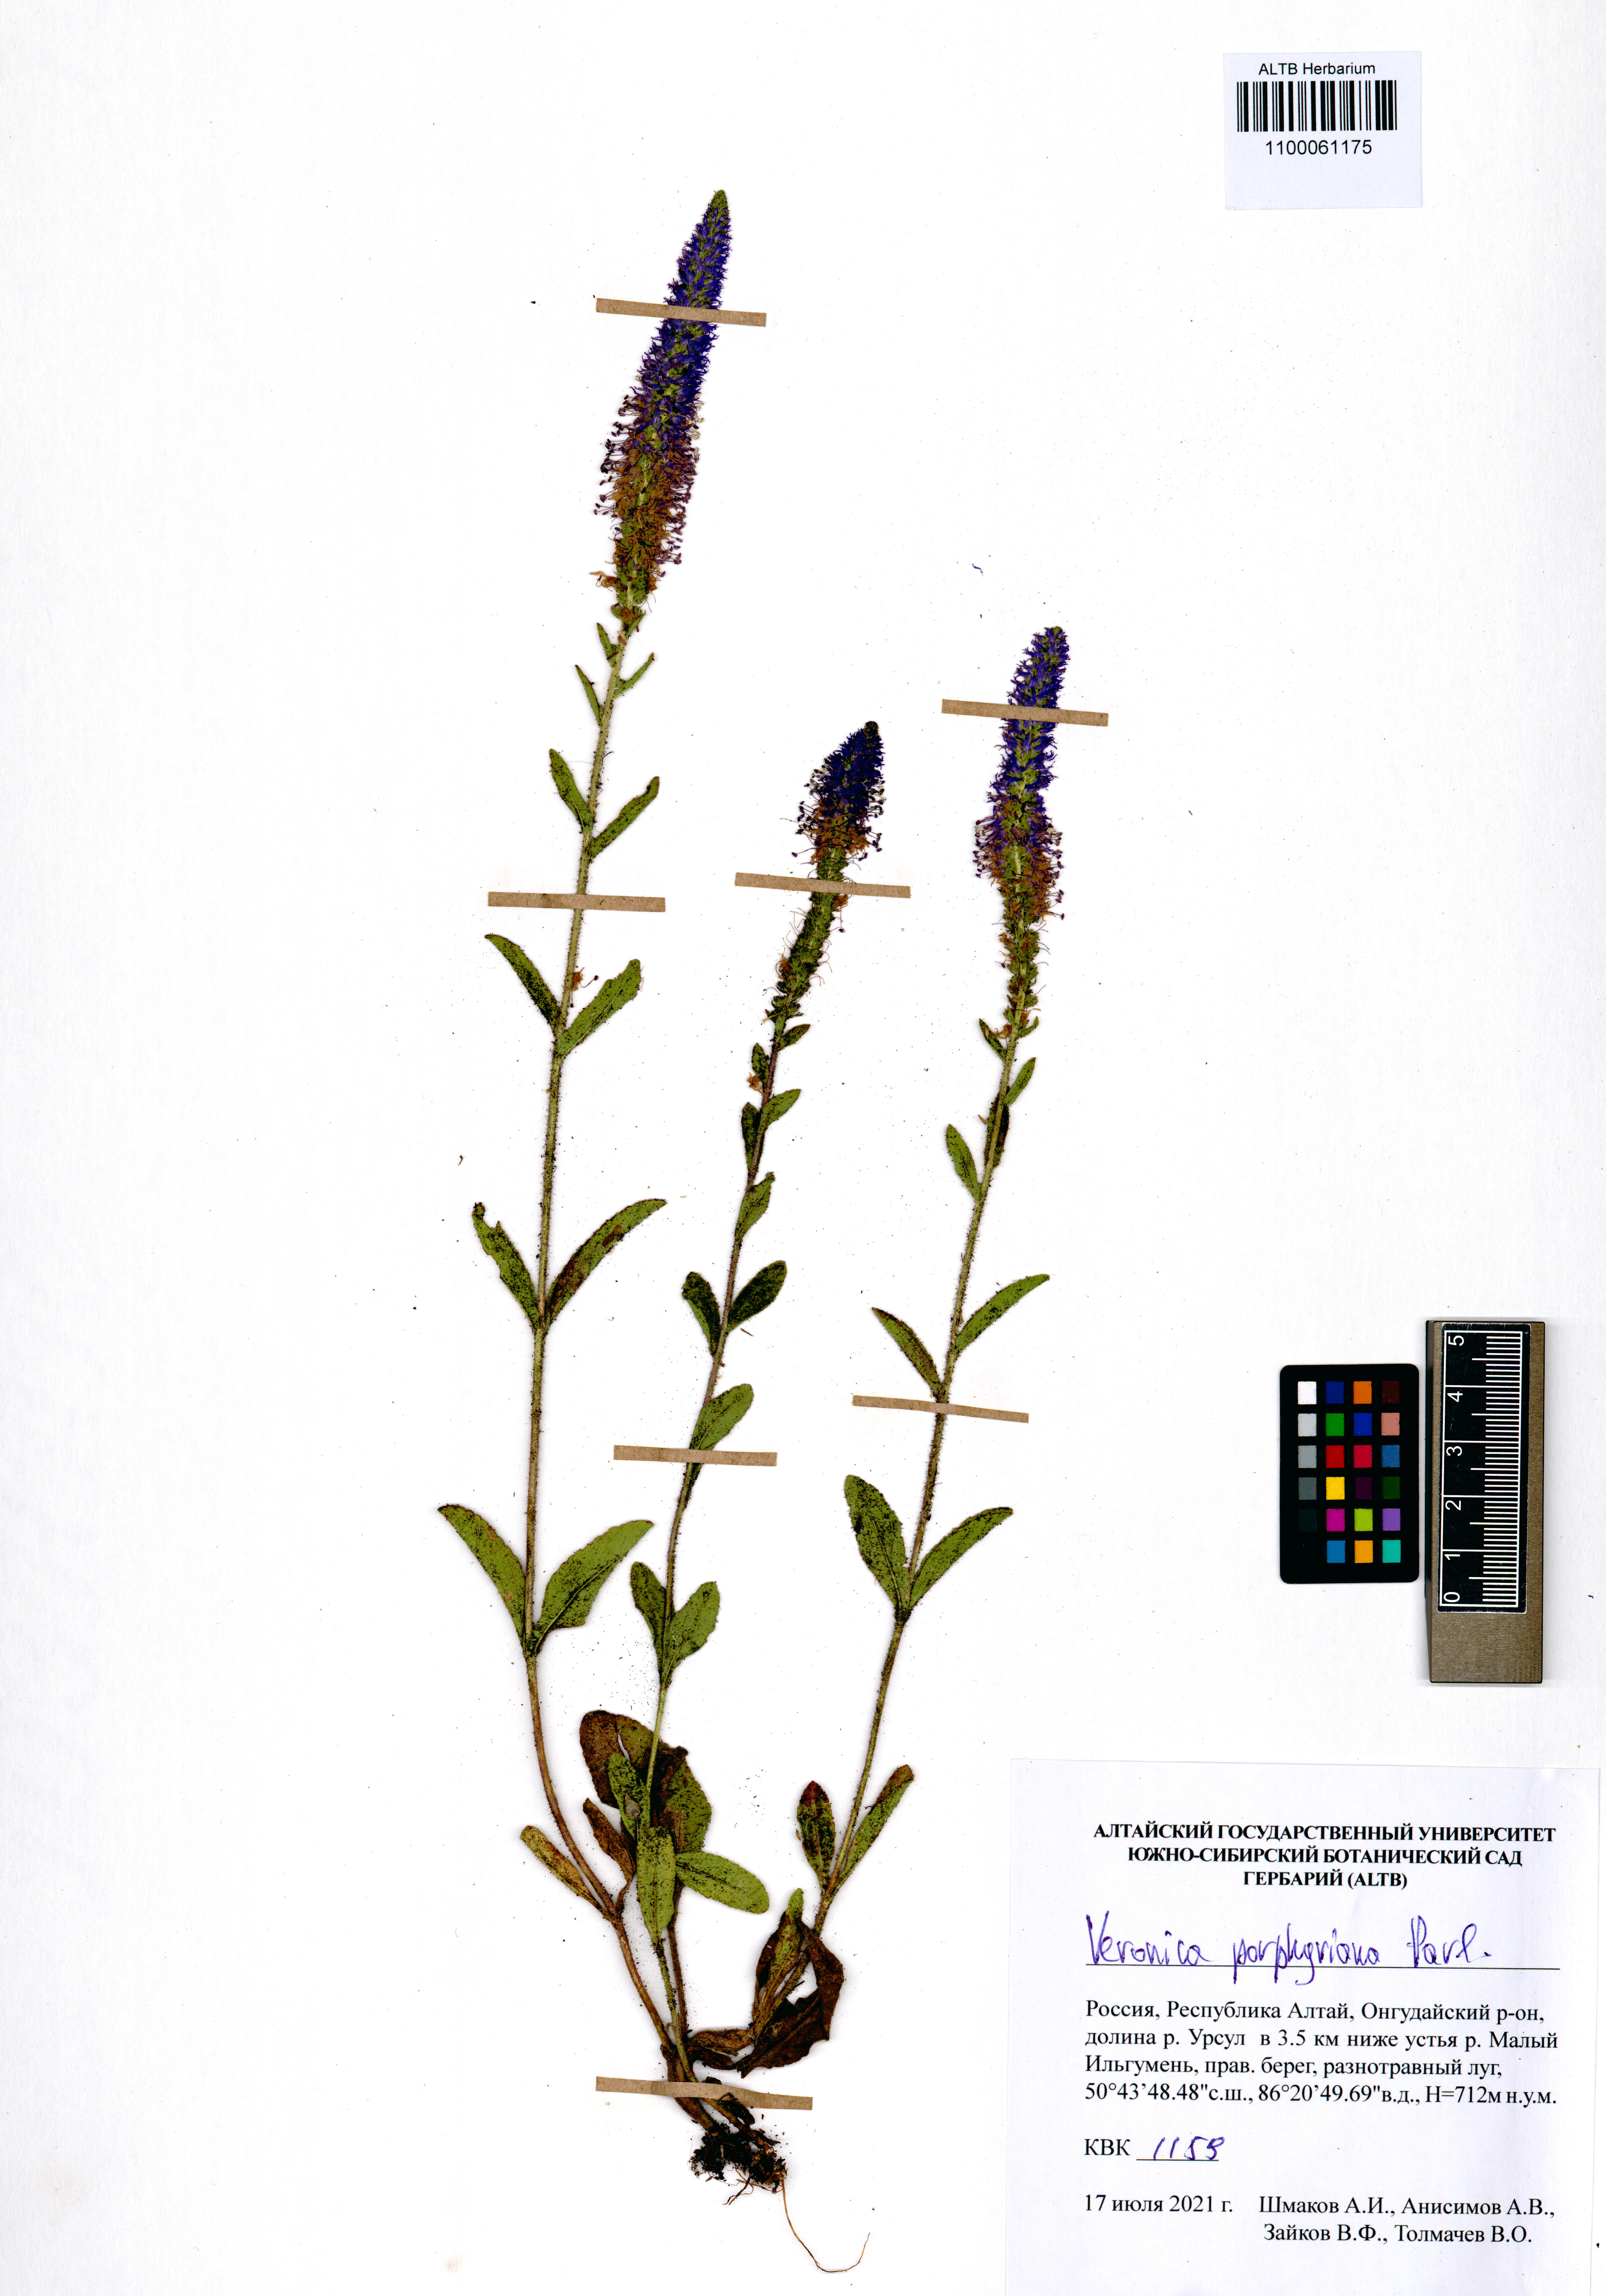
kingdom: Plantae
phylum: Tracheophyta
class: Magnoliopsida
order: Lamiales
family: Plantaginaceae
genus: Veronica
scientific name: Veronica porphyriana
